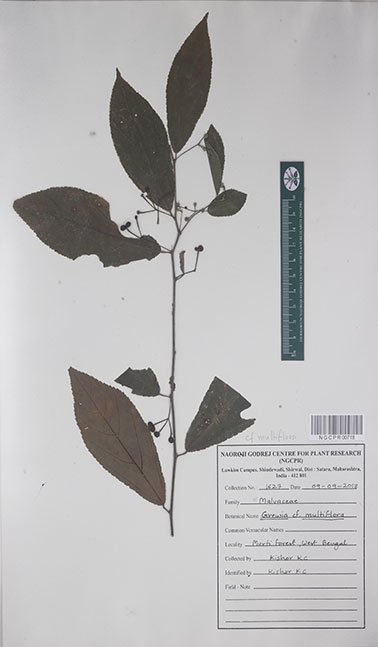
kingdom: Plantae
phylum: Tracheophyta
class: Magnoliopsida
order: Malvales
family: Malvaceae
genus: Grewia
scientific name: Grewia multiflora
